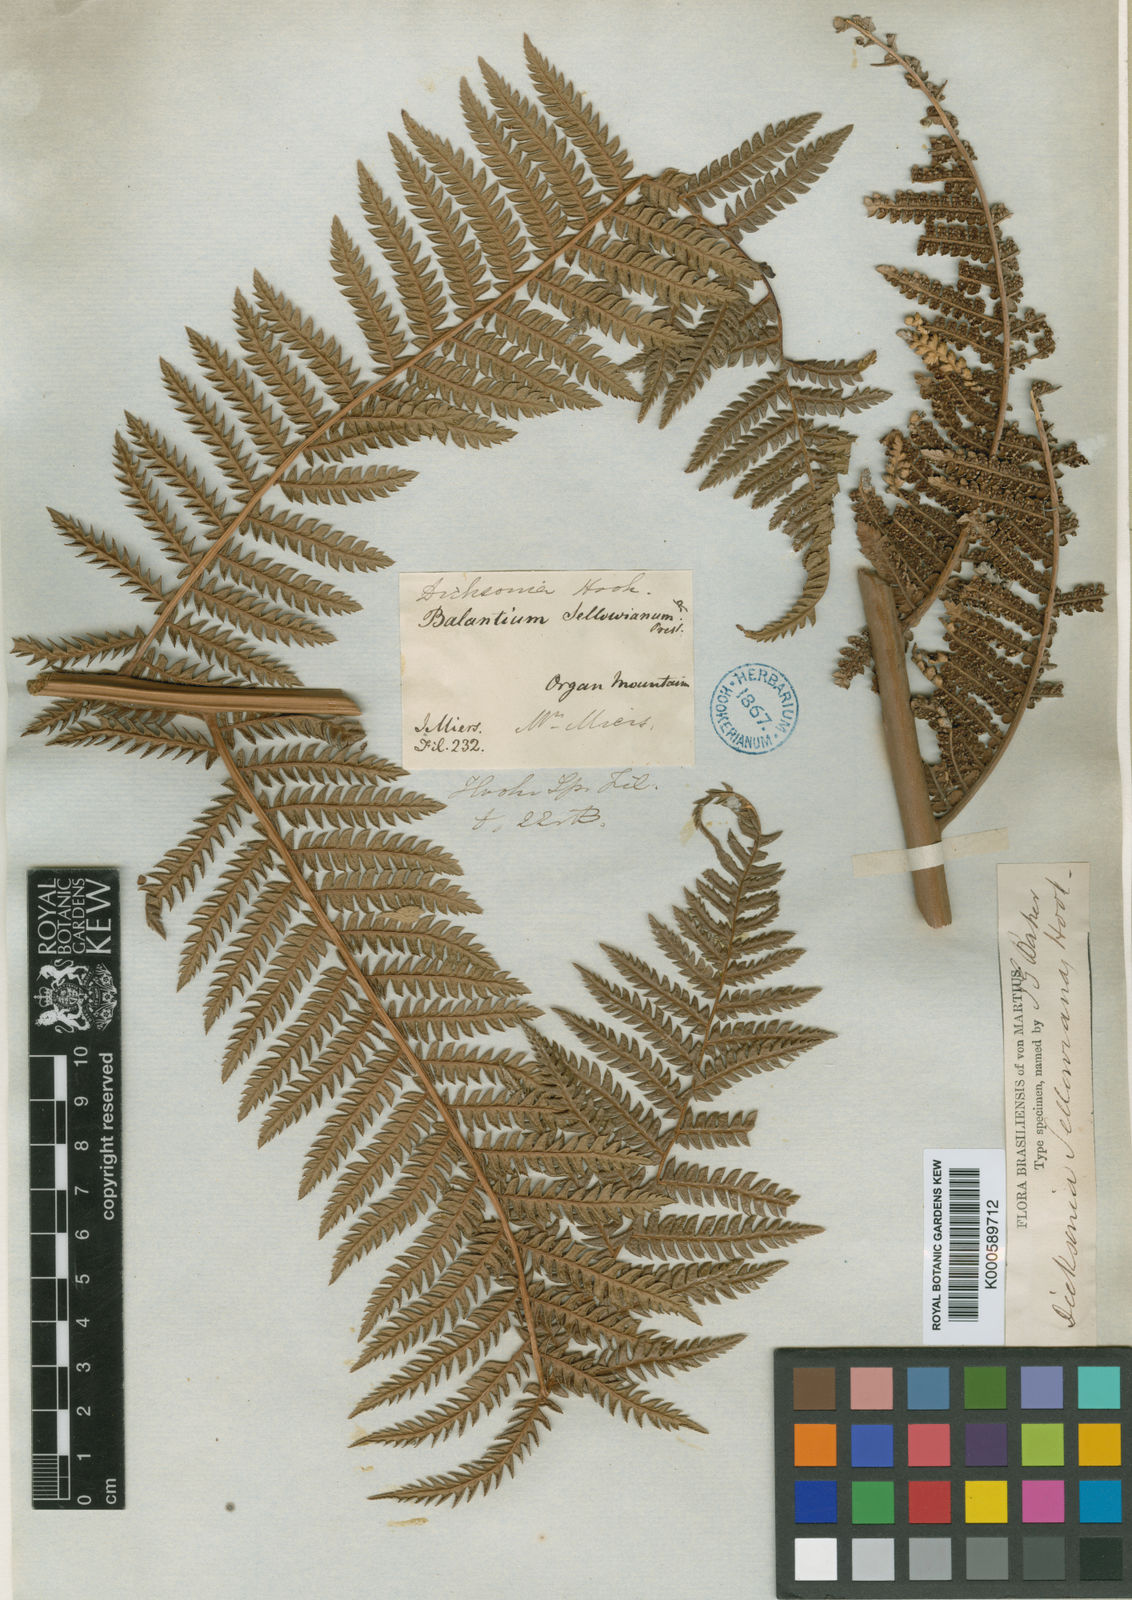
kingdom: Plantae
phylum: Tracheophyta
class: Polypodiopsida
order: Cyatheales
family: Dicksoniaceae
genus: Dicksonia
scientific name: Dicksonia sellowiana
